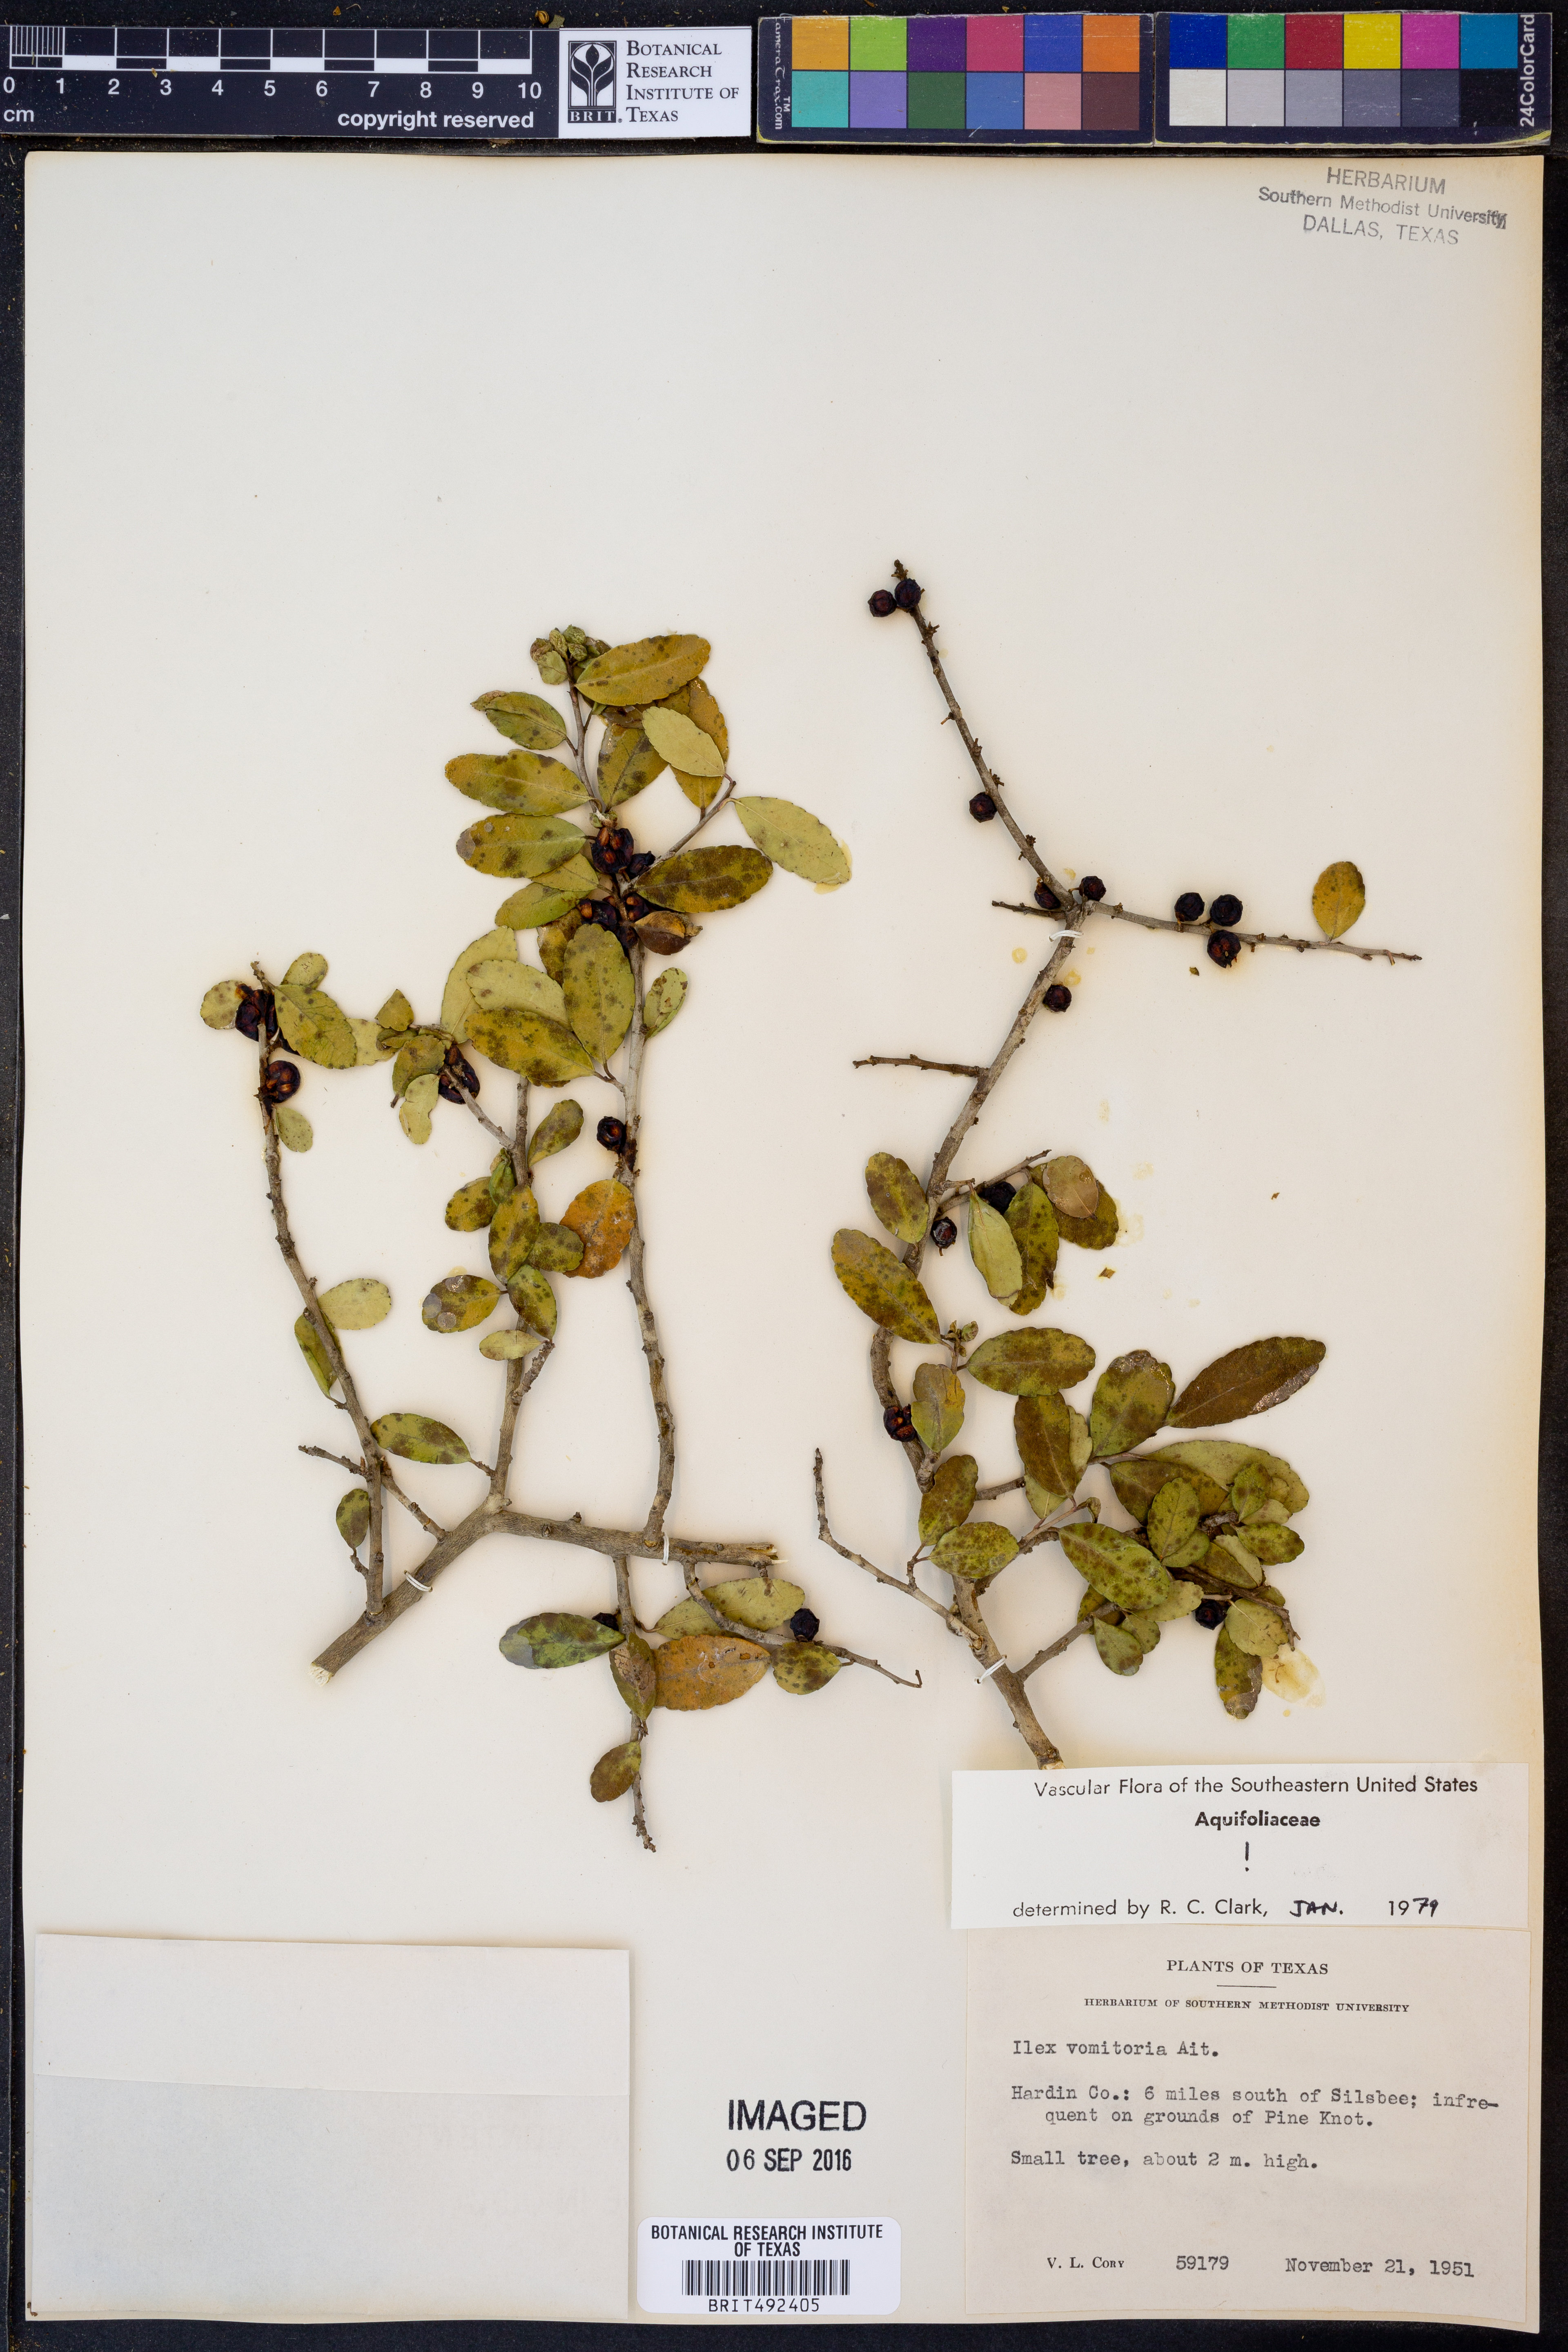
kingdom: Plantae
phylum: Tracheophyta
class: Magnoliopsida
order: Aquifoliales
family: Aquifoliaceae
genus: Ilex
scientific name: Ilex vomitoria
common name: Yaupon holly
